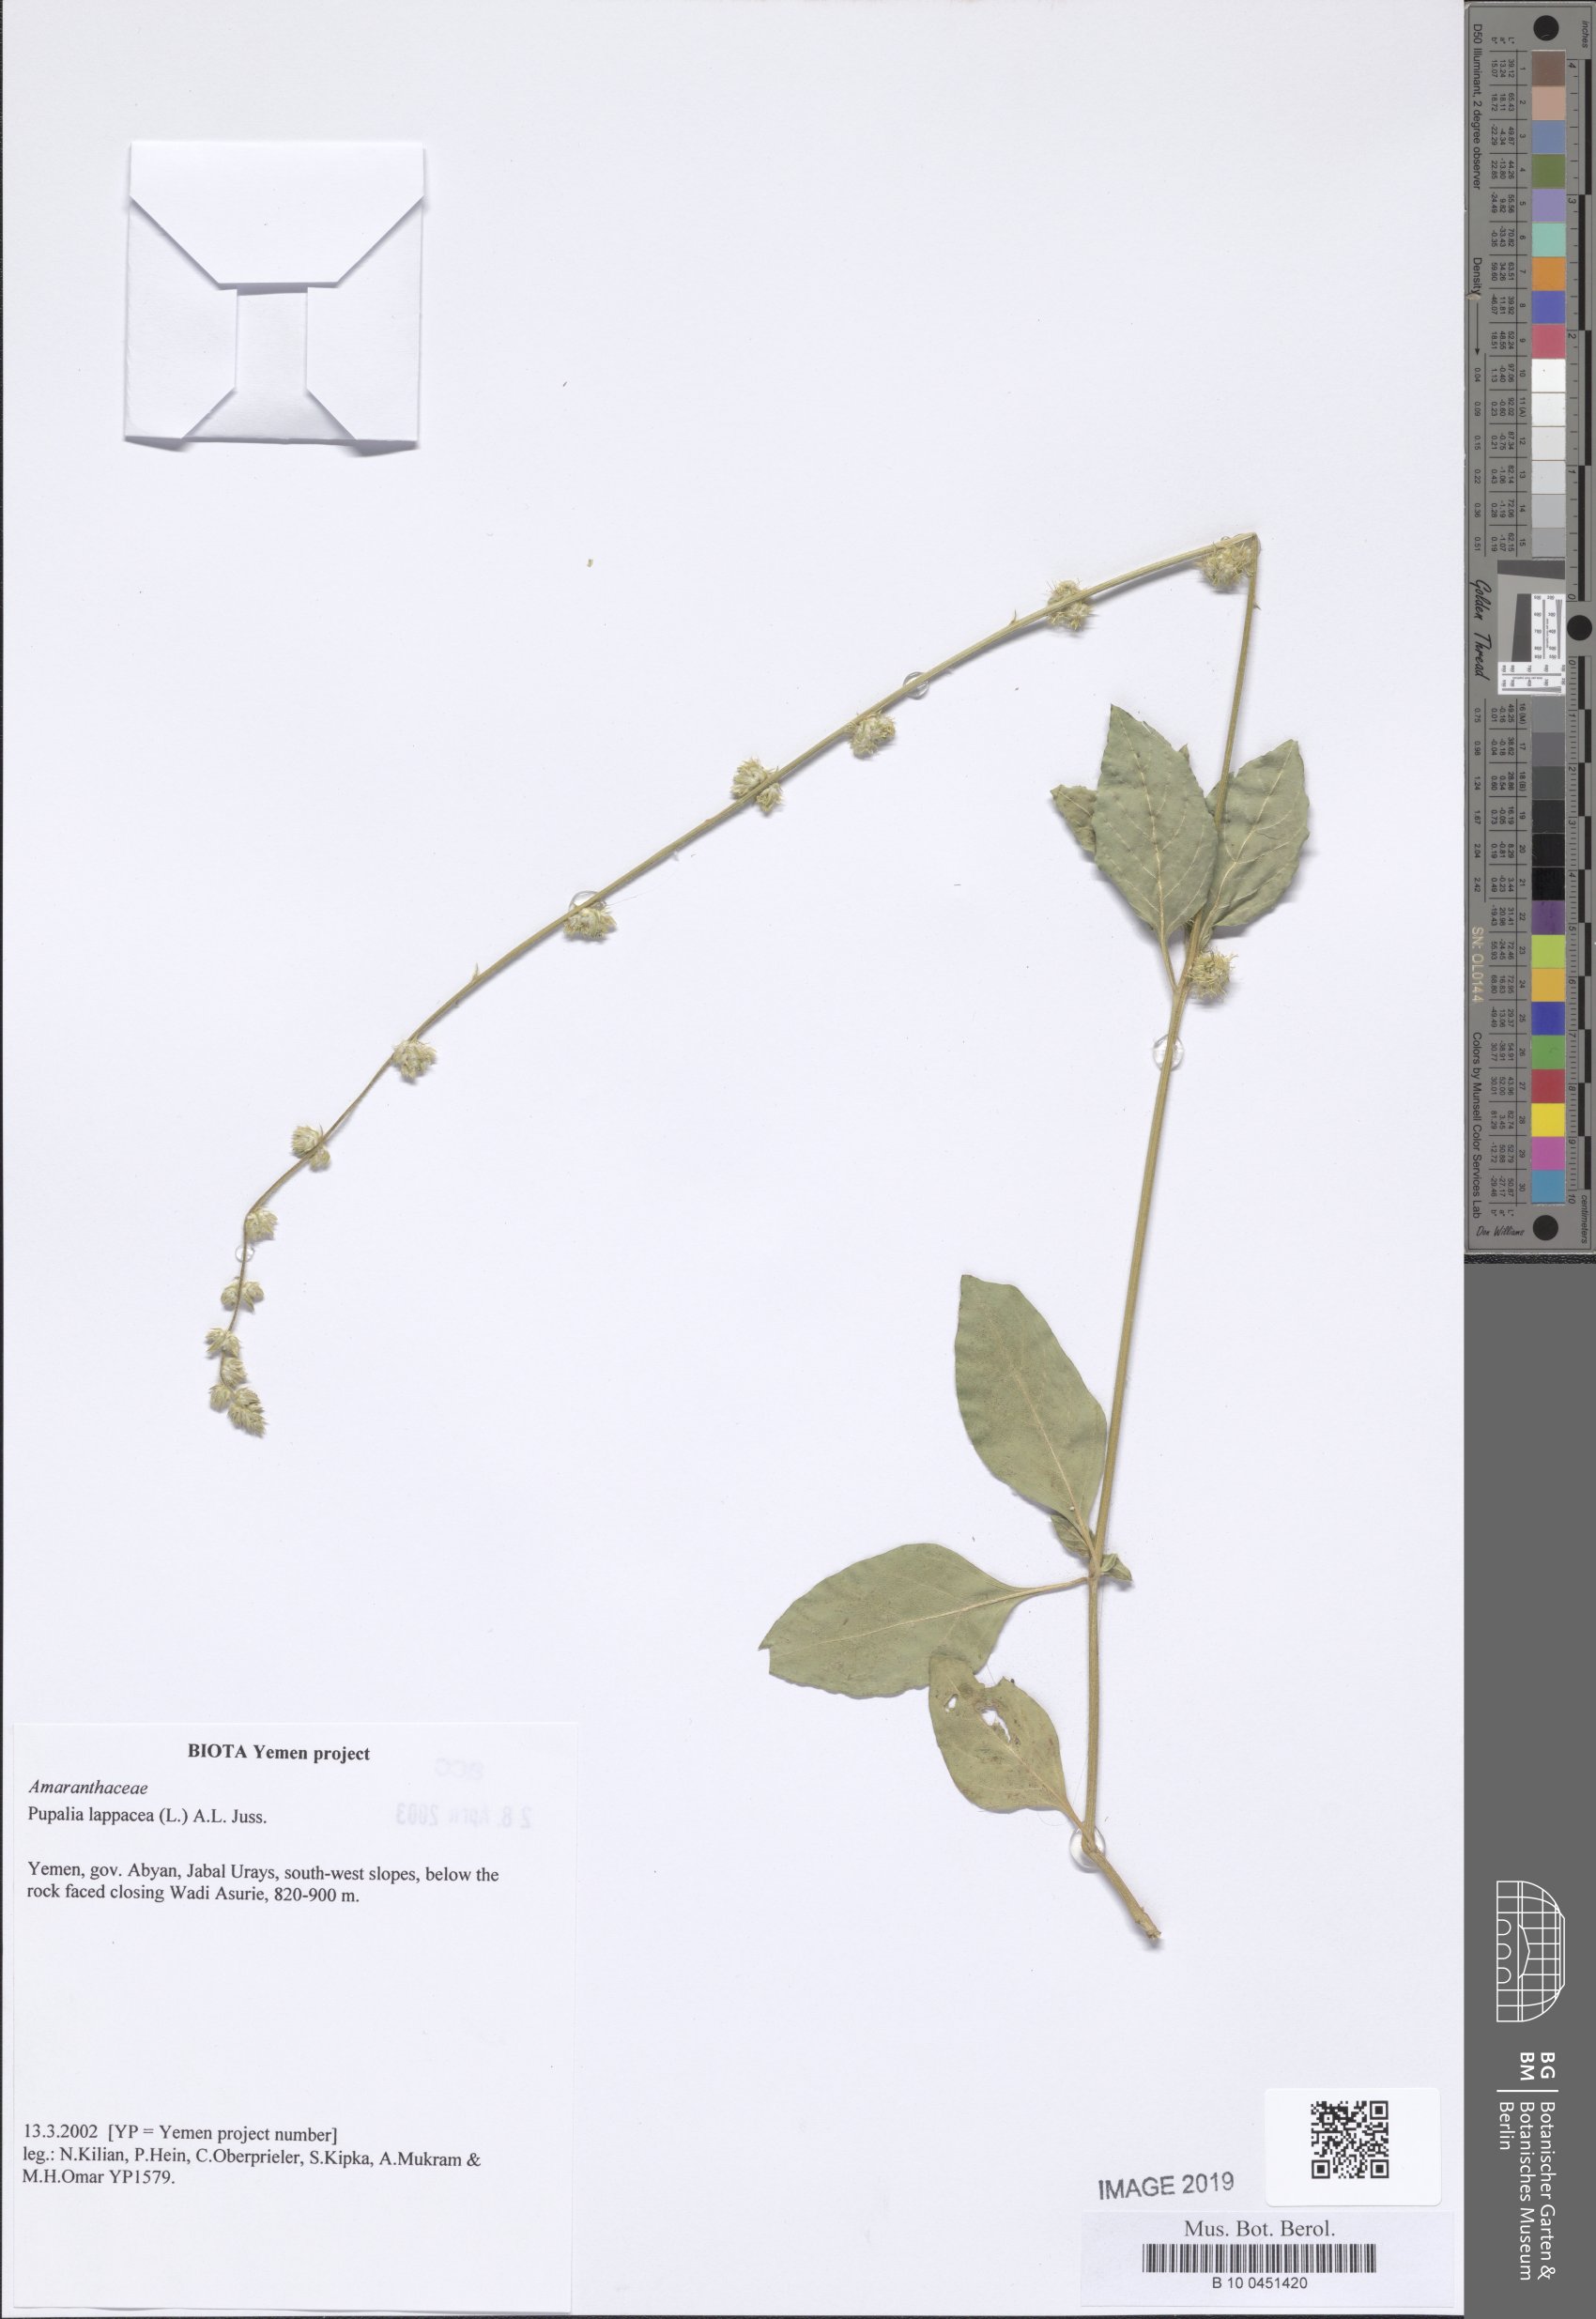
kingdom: Plantae
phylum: Tracheophyta
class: Magnoliopsida
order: Caryophyllales
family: Amaranthaceae
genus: Pupalia
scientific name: Pupalia lappacea
